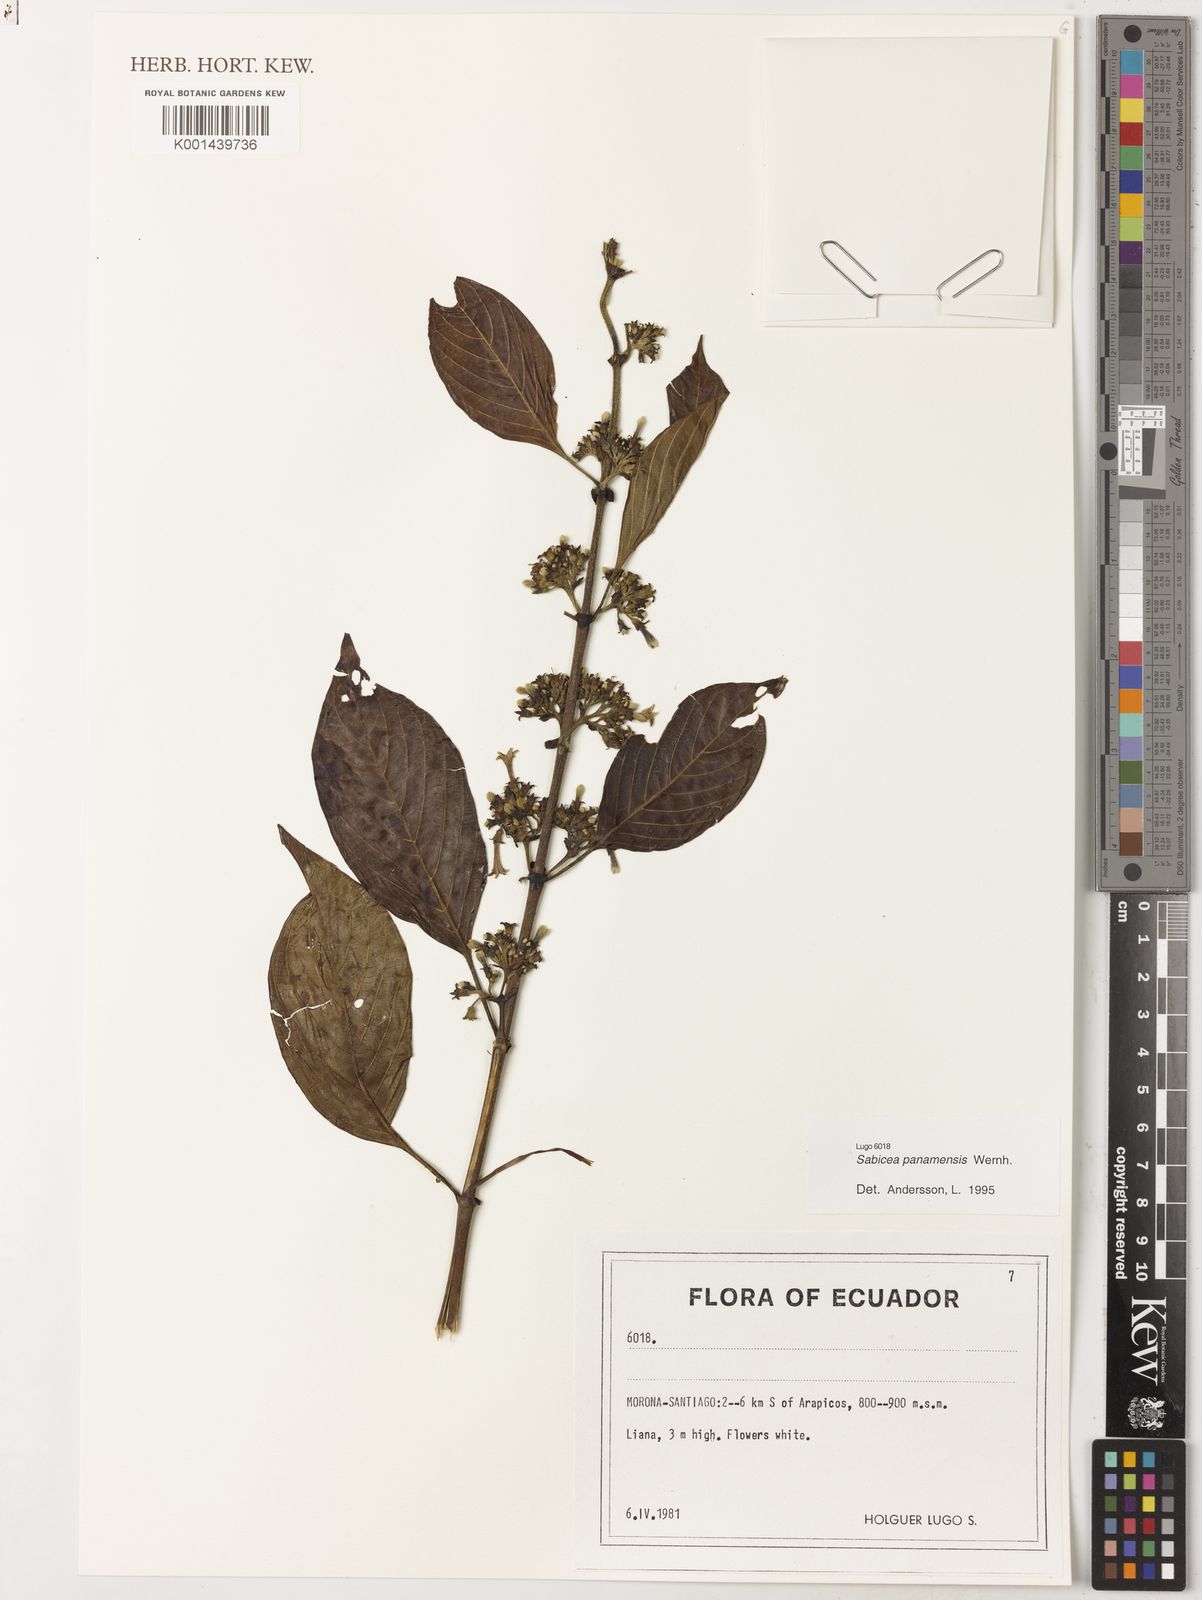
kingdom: Plantae
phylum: Tracheophyta
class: Magnoliopsida
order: Gentianales
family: Rubiaceae
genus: Sabicea
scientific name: Sabicea panamensis
